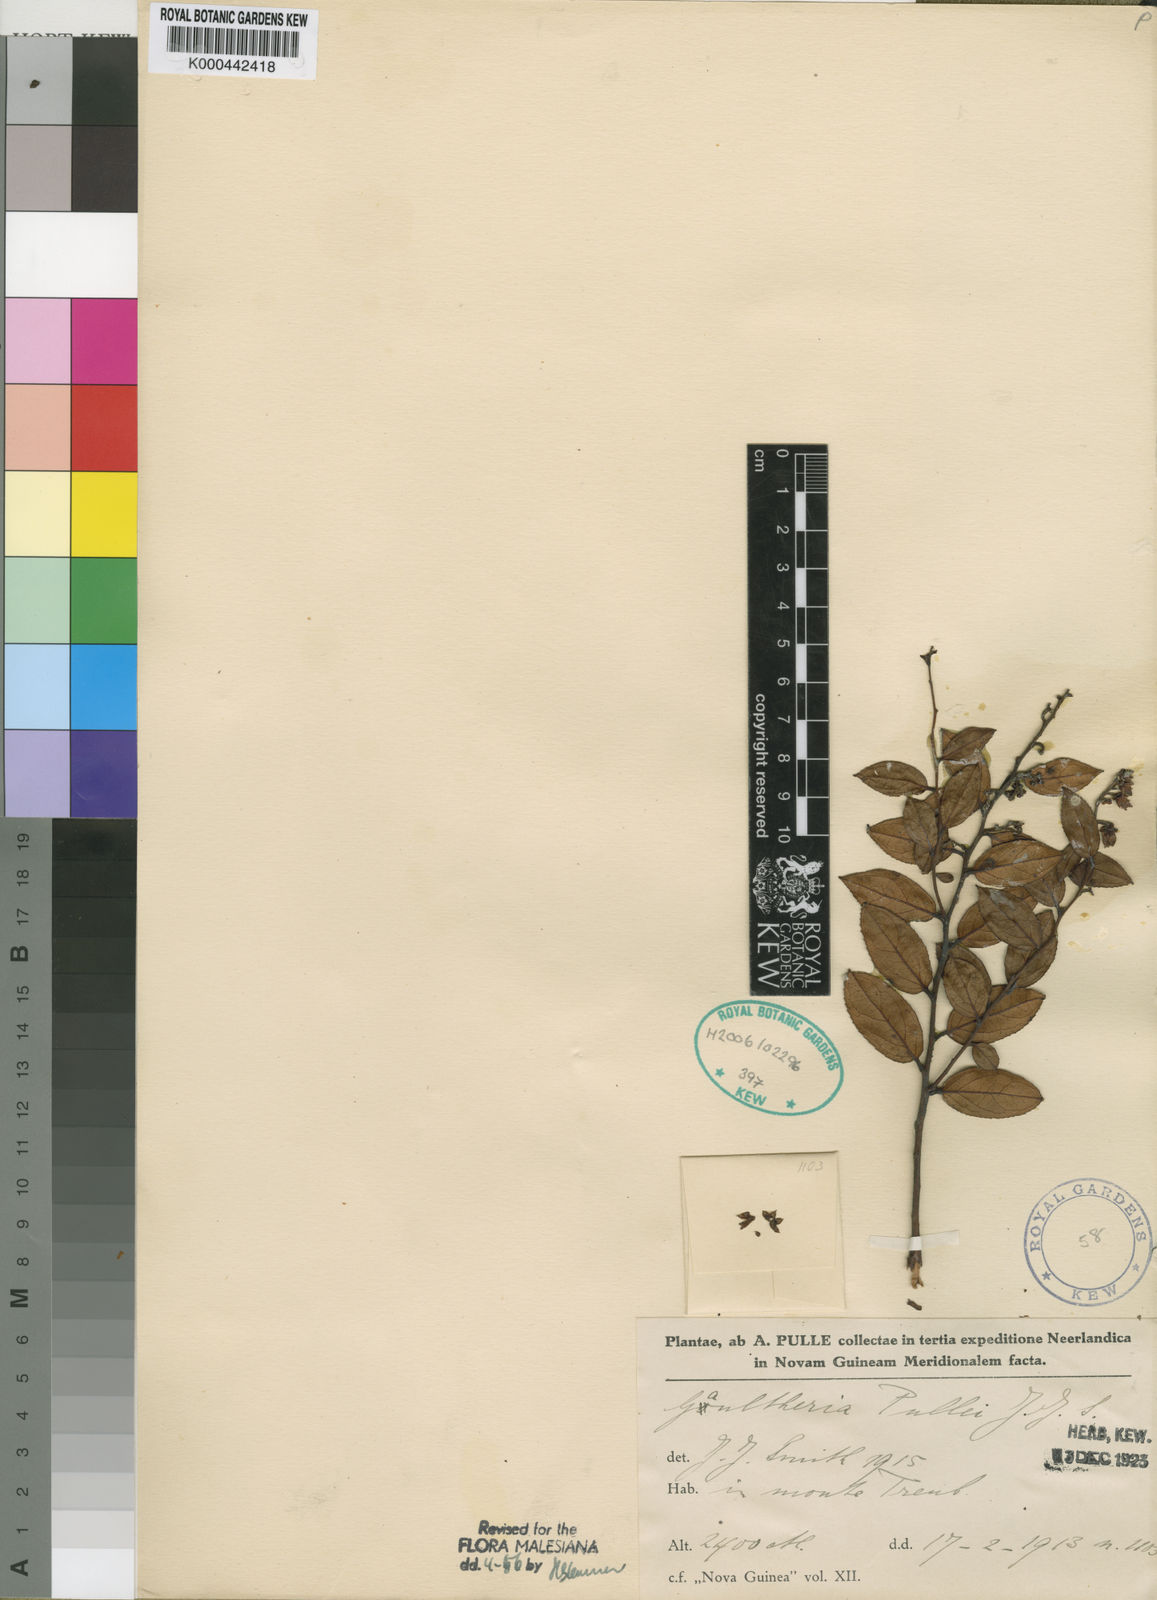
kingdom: Plantae
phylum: Tracheophyta
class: Magnoliopsida
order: Ericales
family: Ericaceae
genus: Gaultheria
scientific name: Gaultheria pullei
